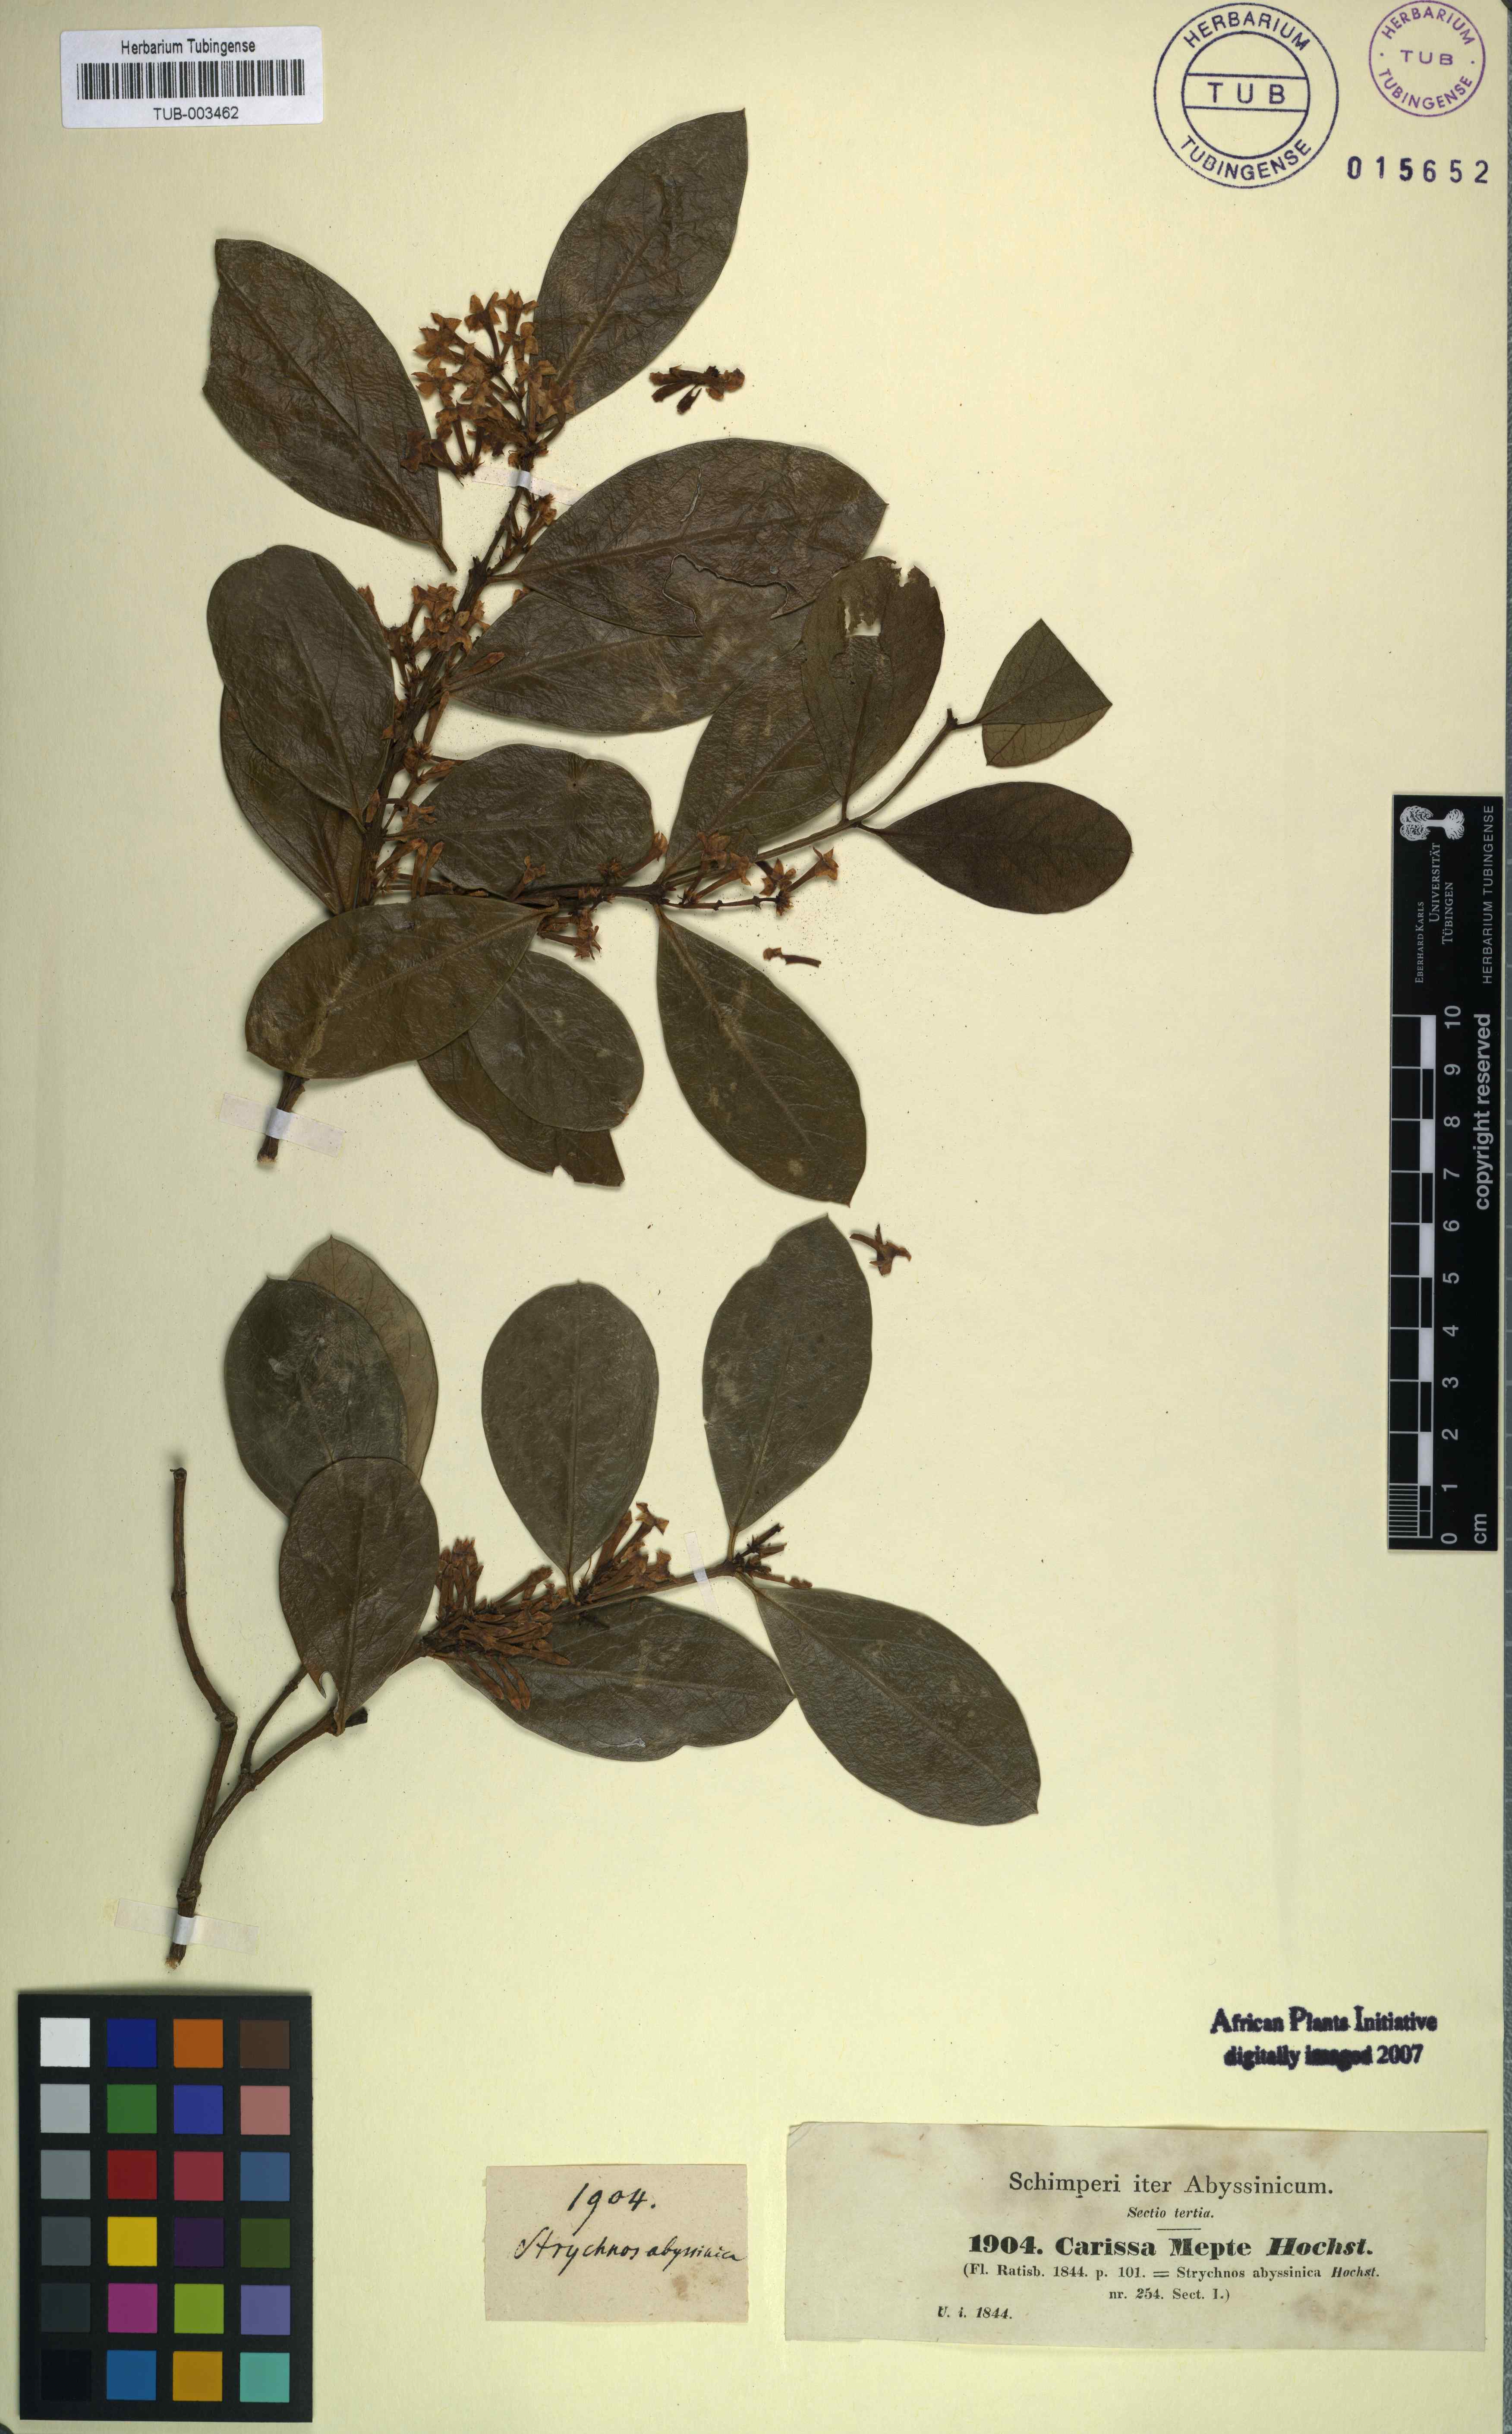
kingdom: Plantae
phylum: Tracheophyta
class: Magnoliopsida
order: Gentianales
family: Apocynaceae
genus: Carissa
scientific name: Carissa
